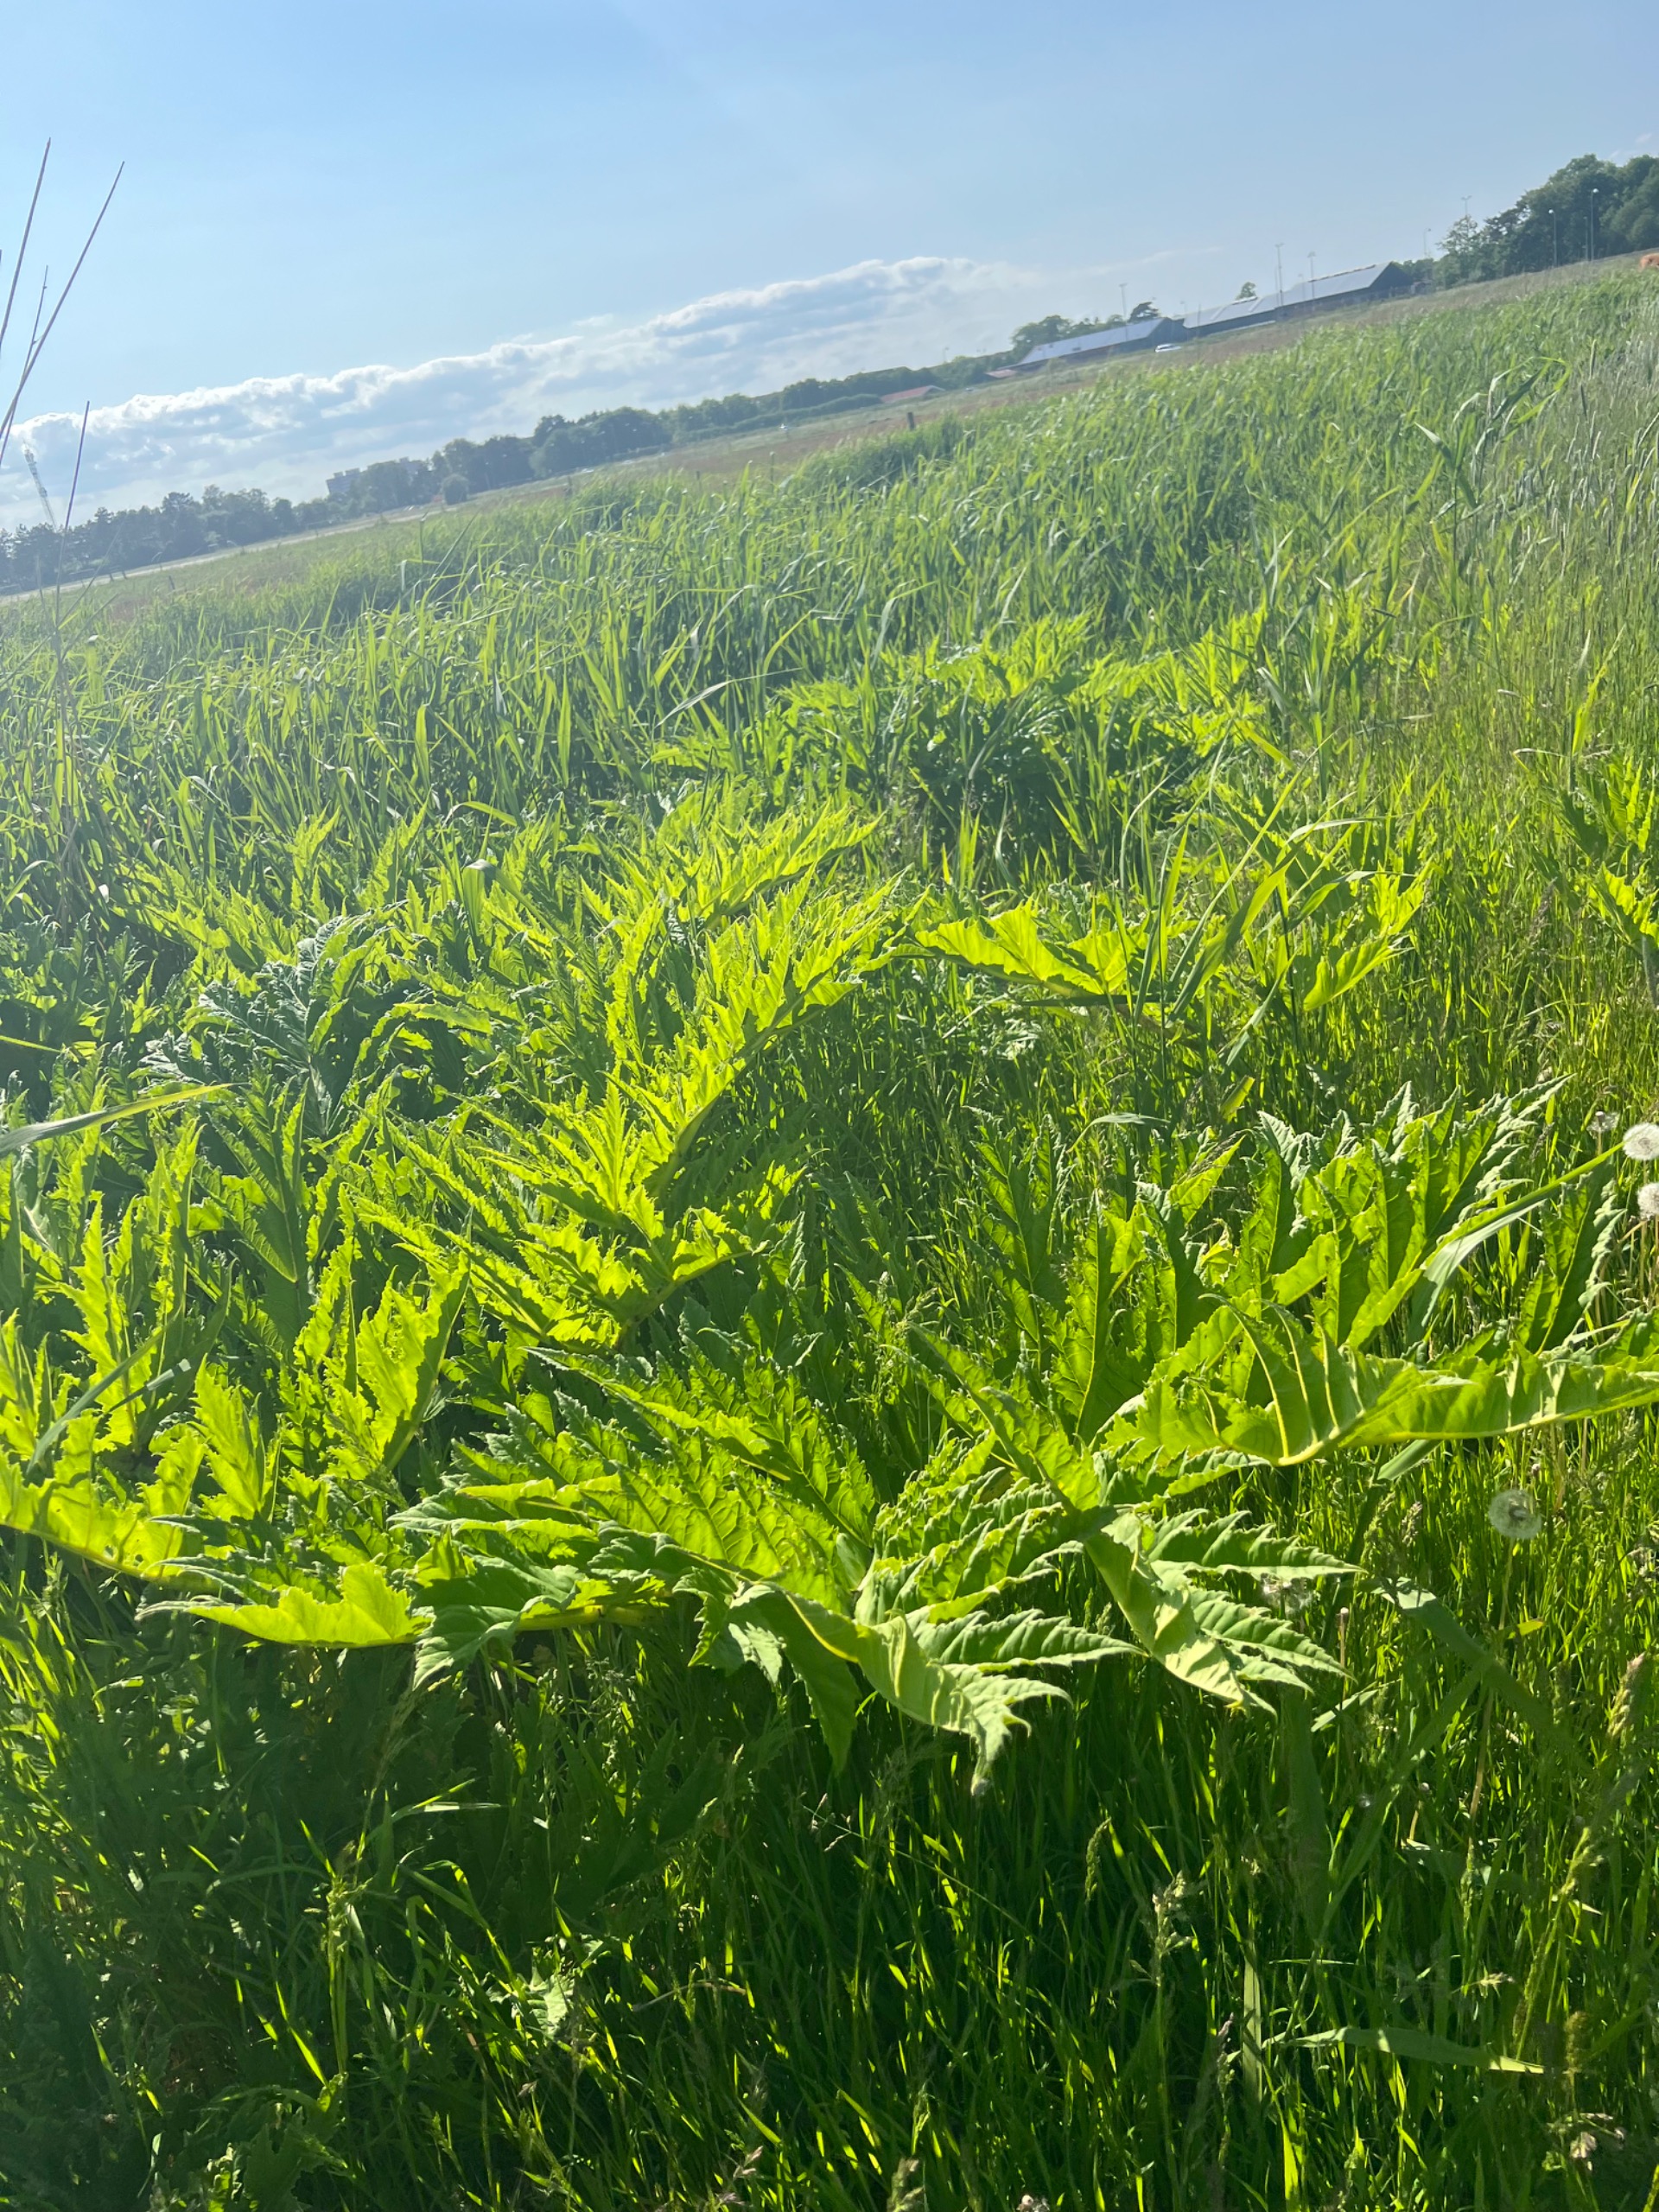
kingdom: Plantae
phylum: Tracheophyta
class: Magnoliopsida
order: Apiales
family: Apiaceae
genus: Heracleum
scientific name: Heracleum mantegazzianum
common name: Kæmpe-bjørneklo
